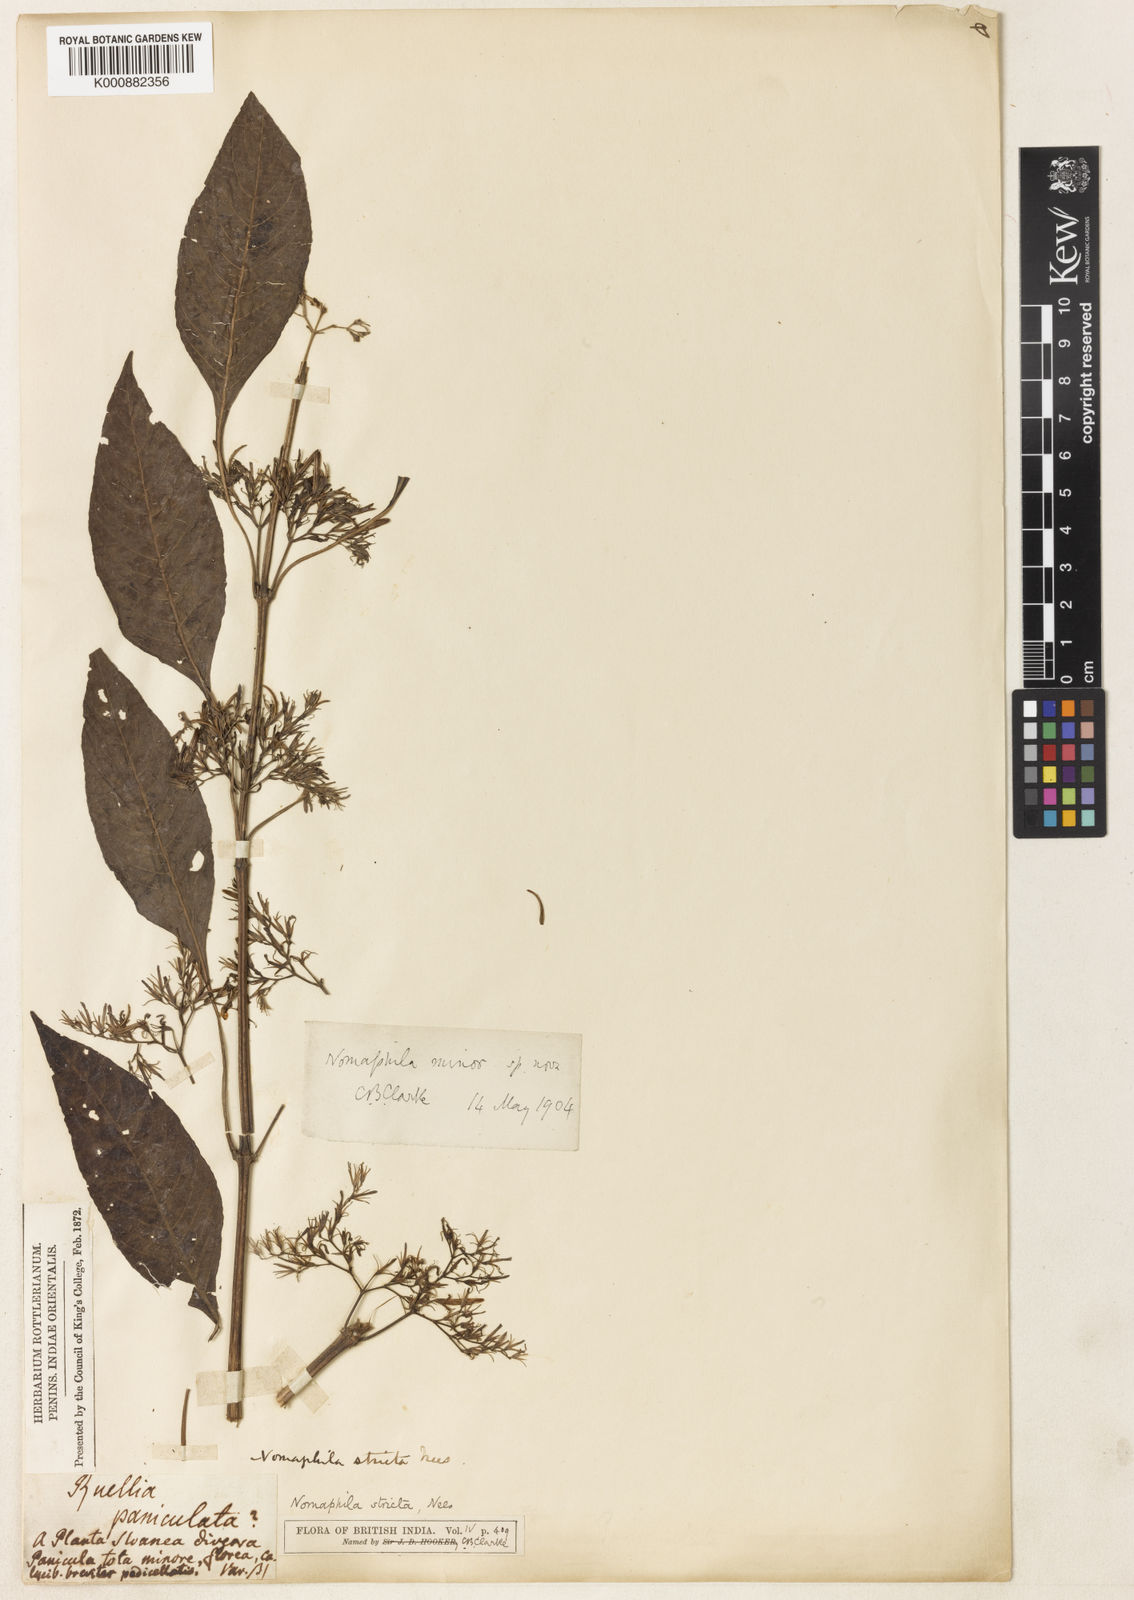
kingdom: Plantae
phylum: Tracheophyta
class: Magnoliopsida
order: Lamiales
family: Acanthaceae
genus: Hygrophila
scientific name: Hygrophila corymbosa
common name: Starhorn
